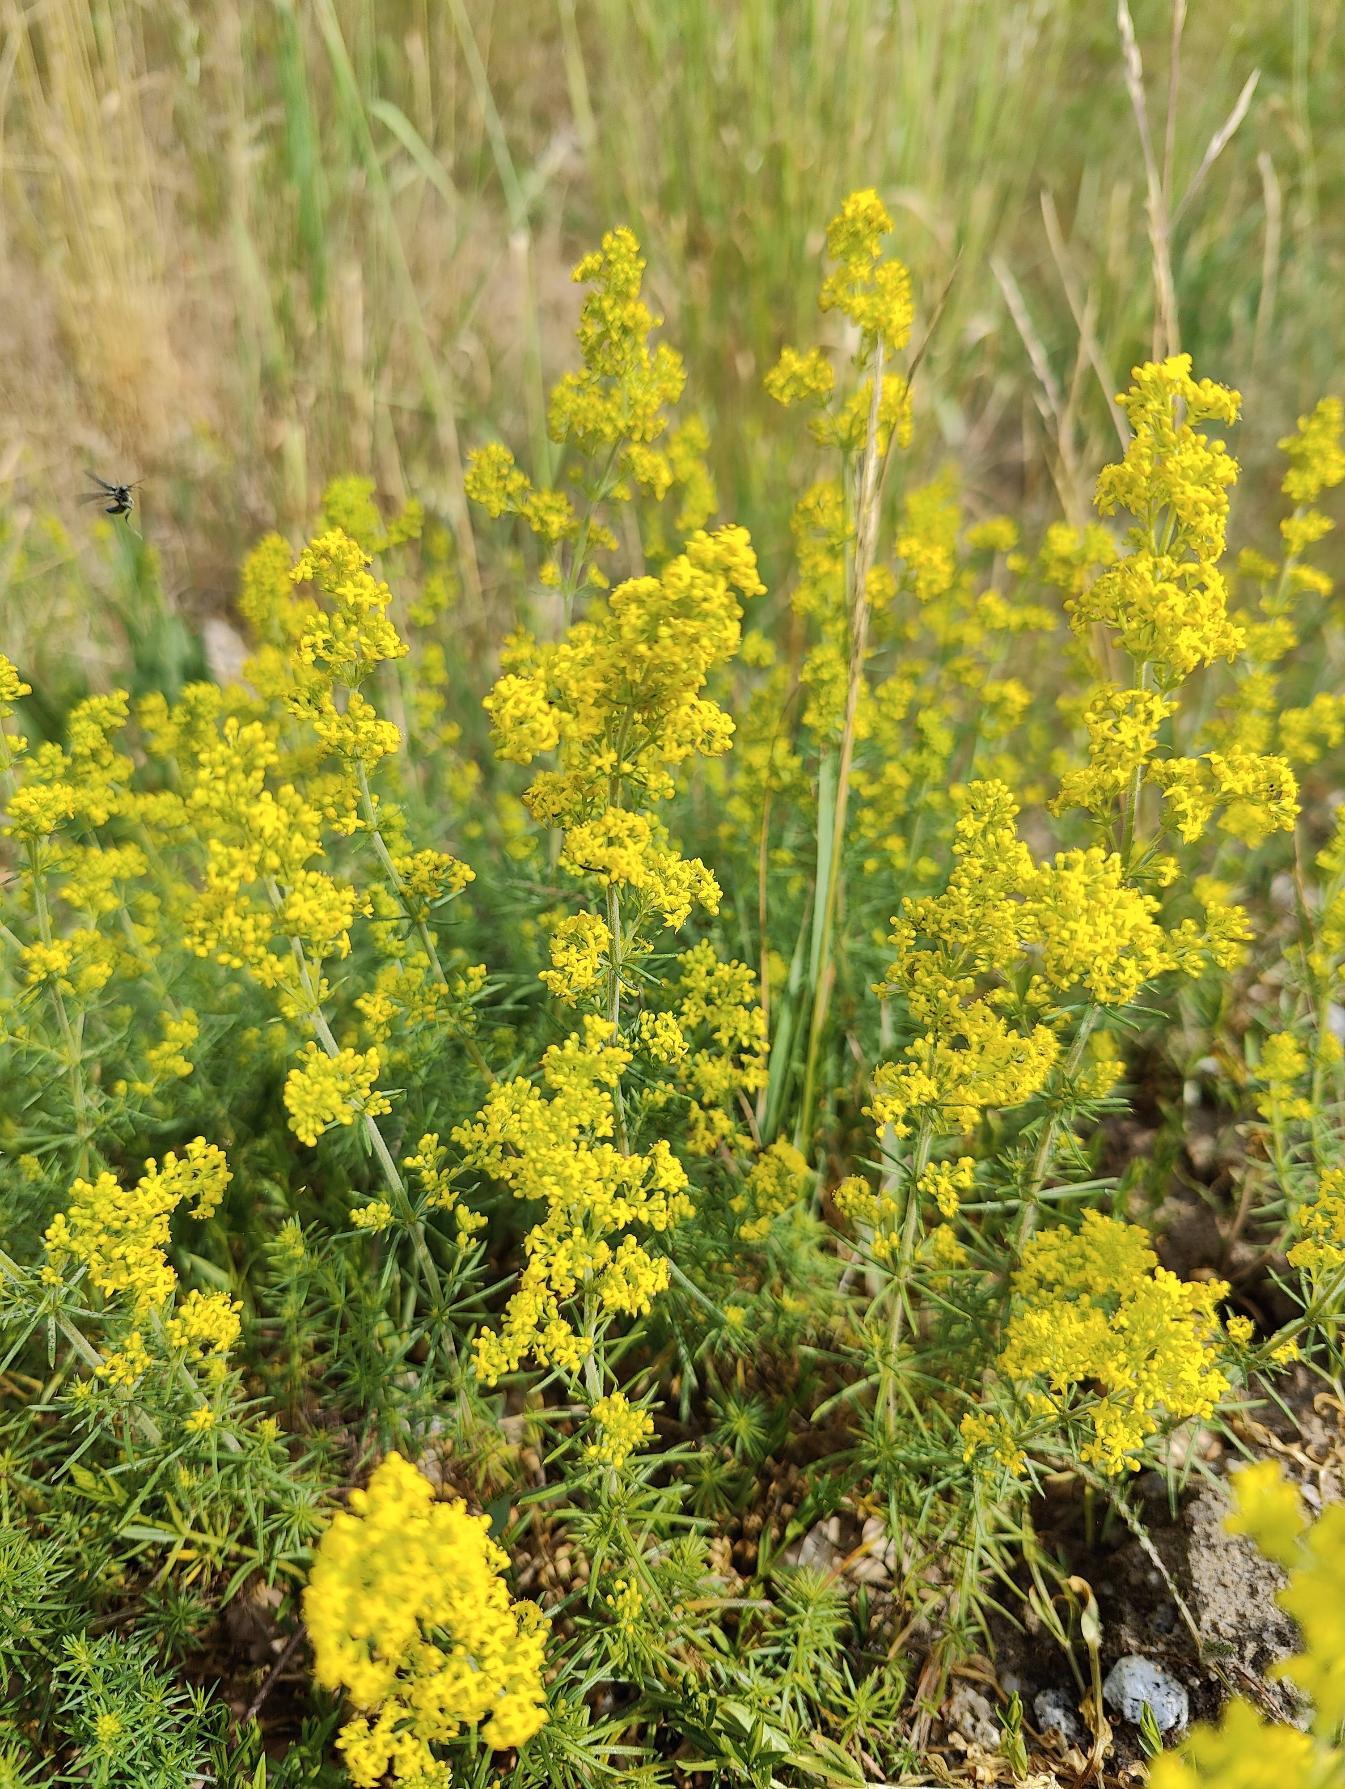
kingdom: Plantae
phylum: Tracheophyta
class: Magnoliopsida
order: Gentianales
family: Rubiaceae
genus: Galium
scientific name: Galium verum
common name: Gul snerre
